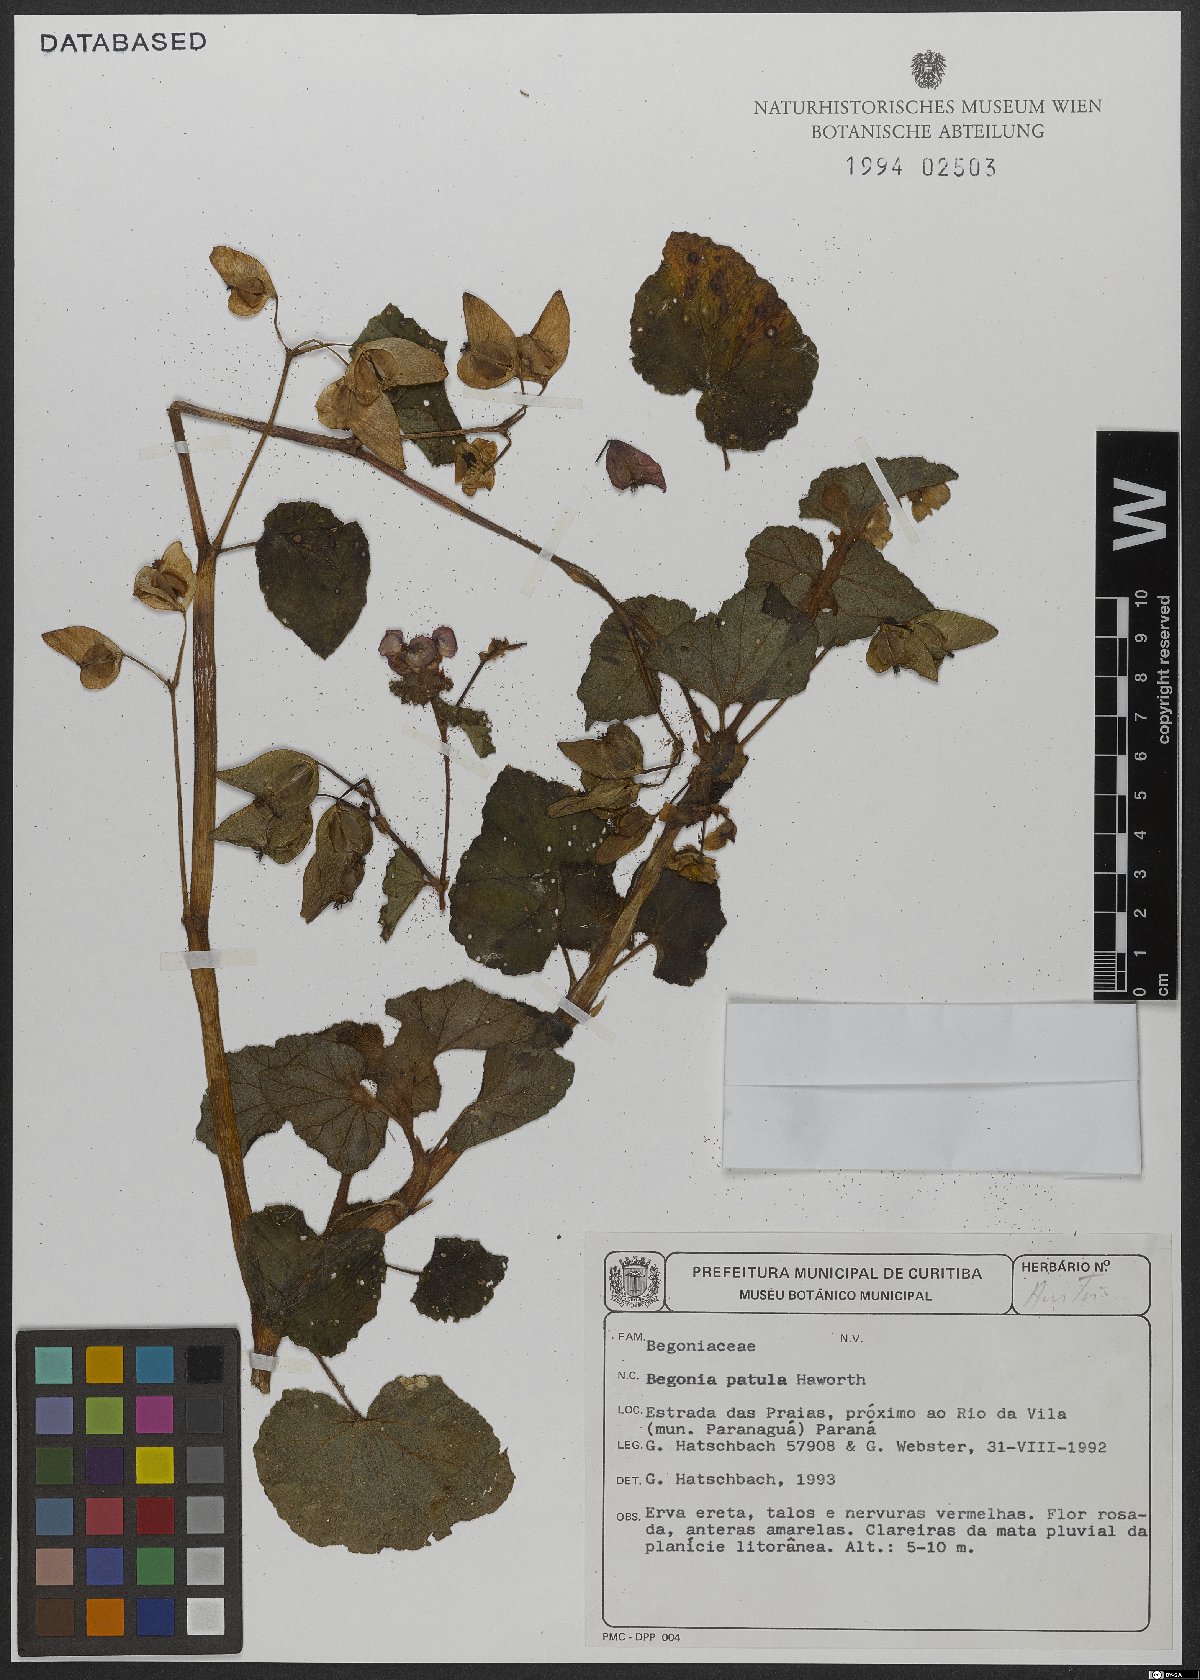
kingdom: Plantae
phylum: Tracheophyta
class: Magnoliopsida
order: Cucurbitales
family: Begoniaceae
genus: Begonia
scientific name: Begonia fischeri
